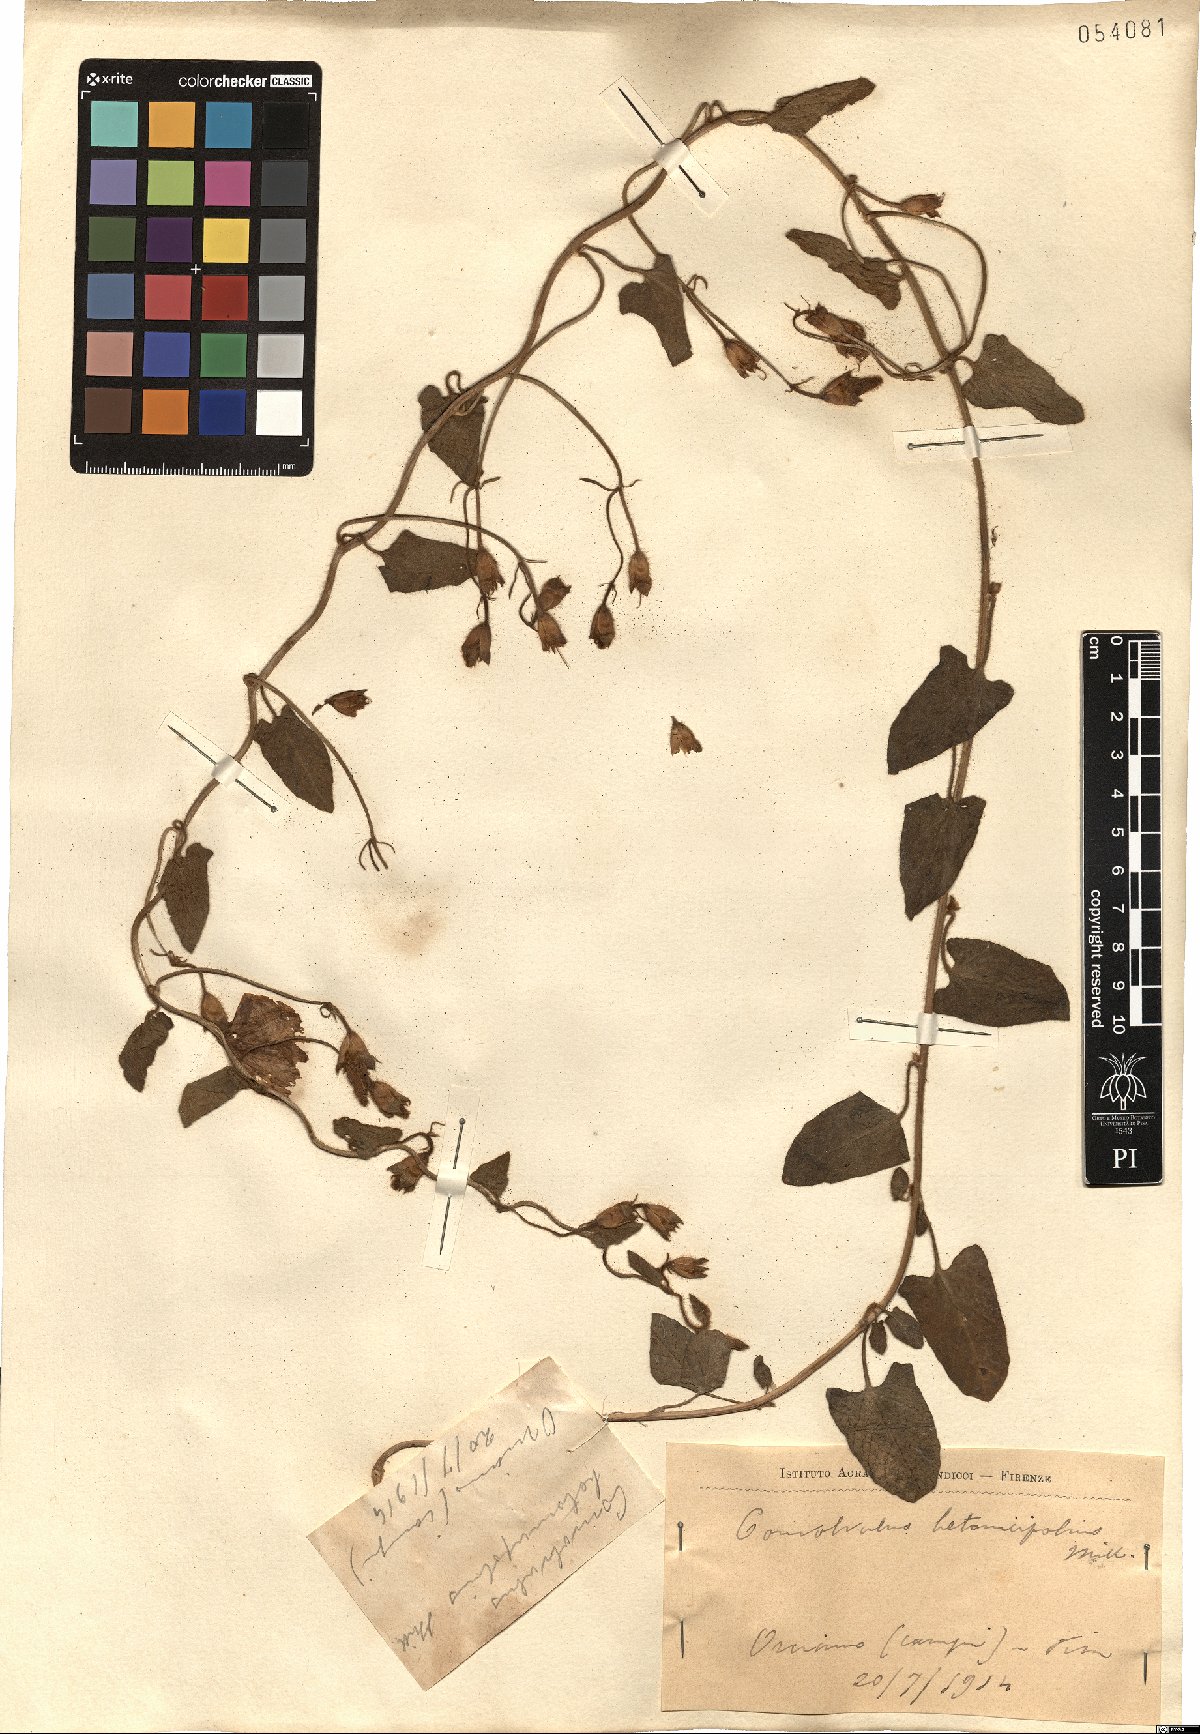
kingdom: Plantae
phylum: Tracheophyta
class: Magnoliopsida
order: Solanales
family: Convolvulaceae
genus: Convolvulus
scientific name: Convolvulus betonicifolius
